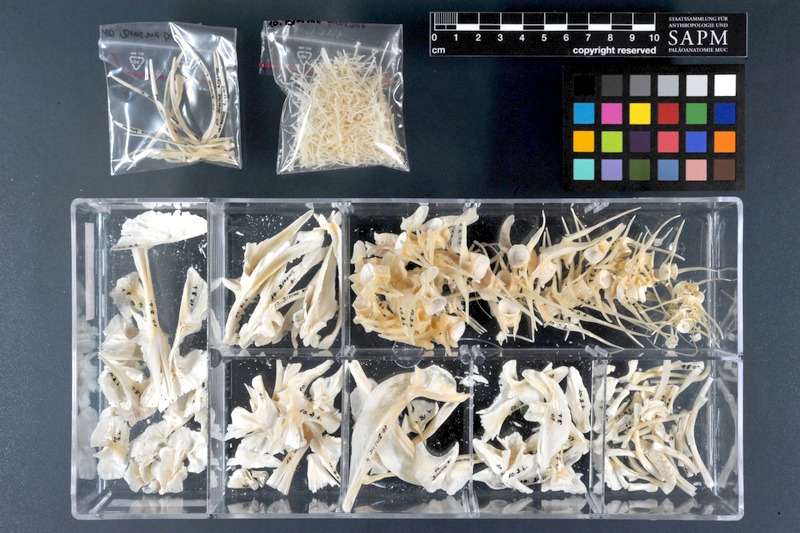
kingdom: Animalia
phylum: Chordata
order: Gadiformes
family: Lotidae
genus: Brosme
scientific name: Brosme brosme
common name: Cusk
